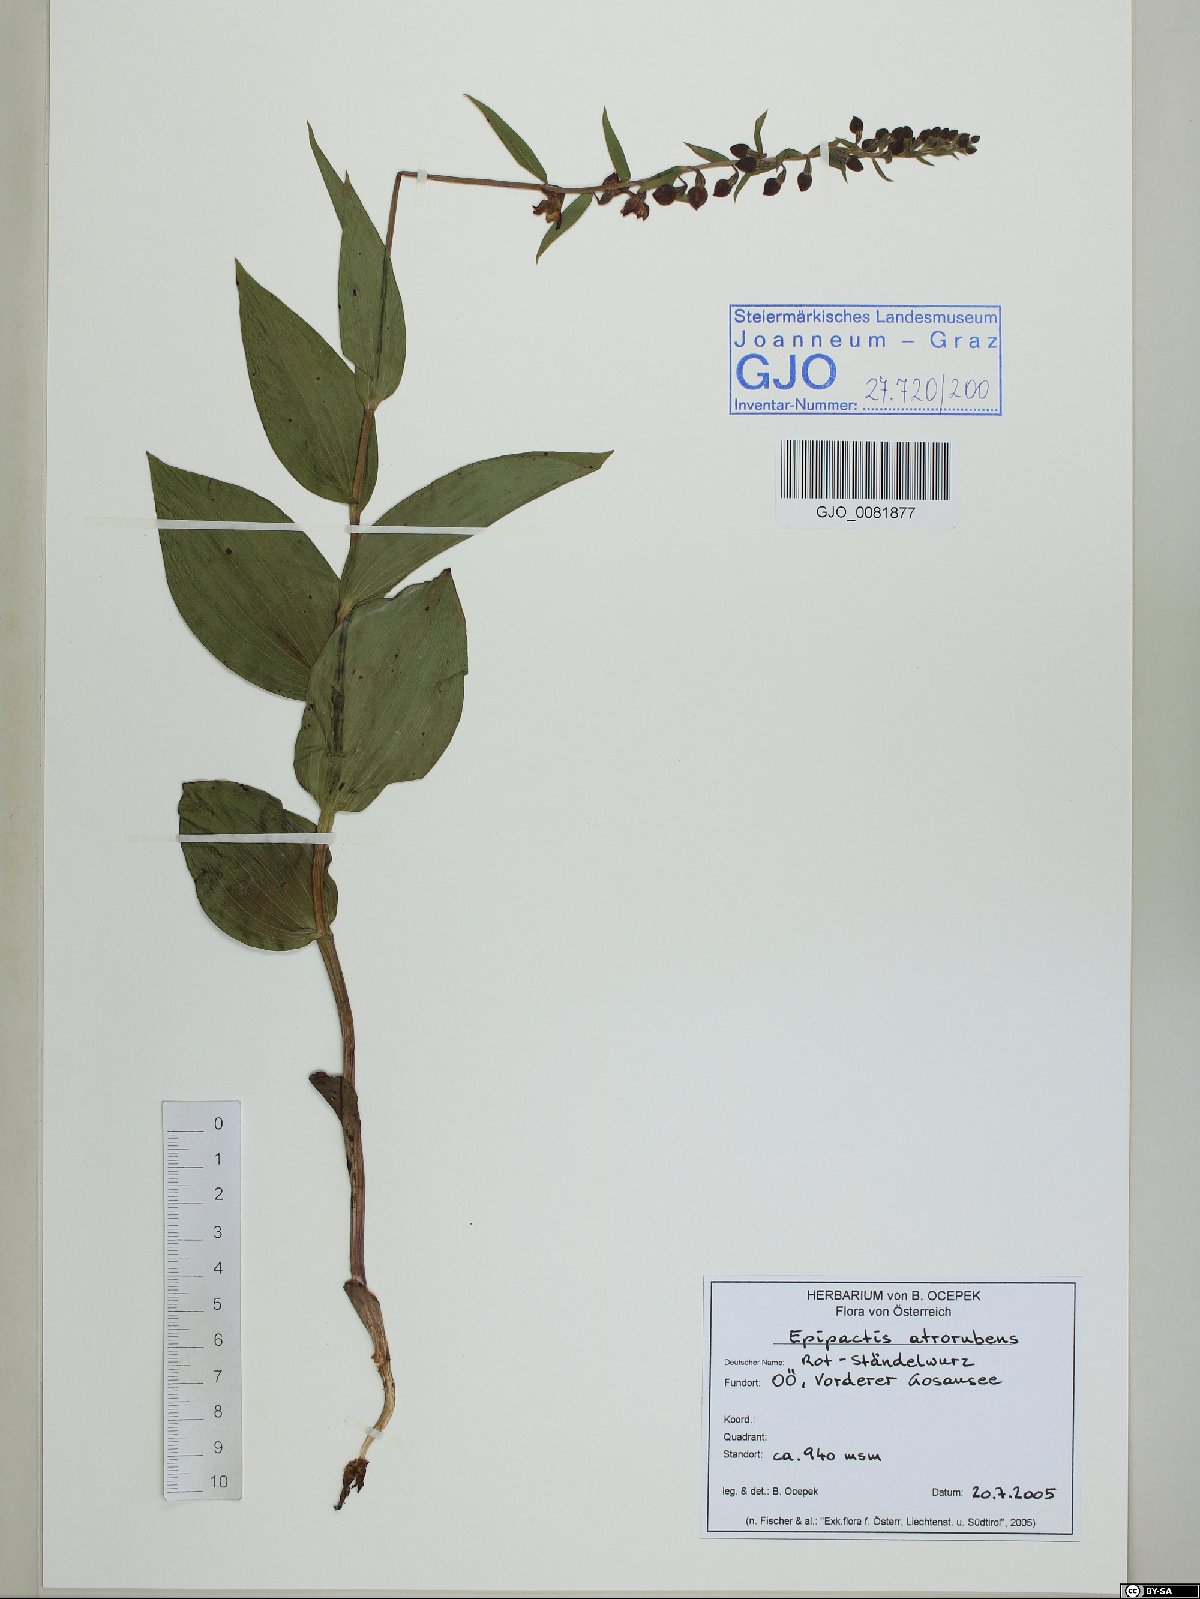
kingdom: Plantae
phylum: Tracheophyta
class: Liliopsida
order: Asparagales
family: Orchidaceae
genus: Epipactis
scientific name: Epipactis atrorubens
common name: Dark-red helleborine
